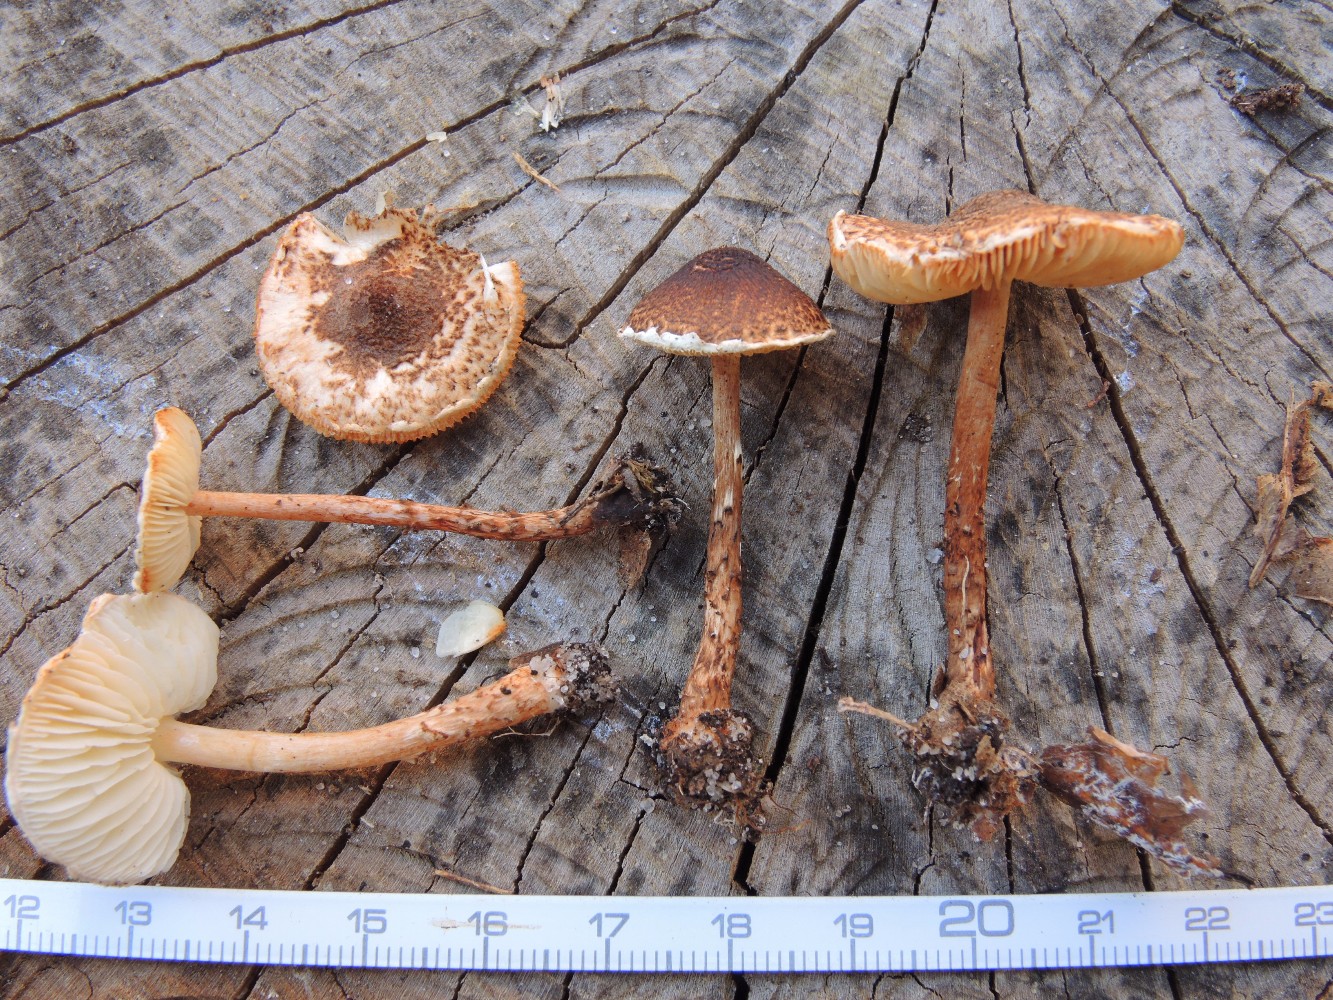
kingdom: Fungi
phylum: Basidiomycota
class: Agaricomycetes
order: Agaricales
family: Agaricaceae
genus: Lepiota
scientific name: Lepiota castanea
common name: kastaniebrun parasolhat
